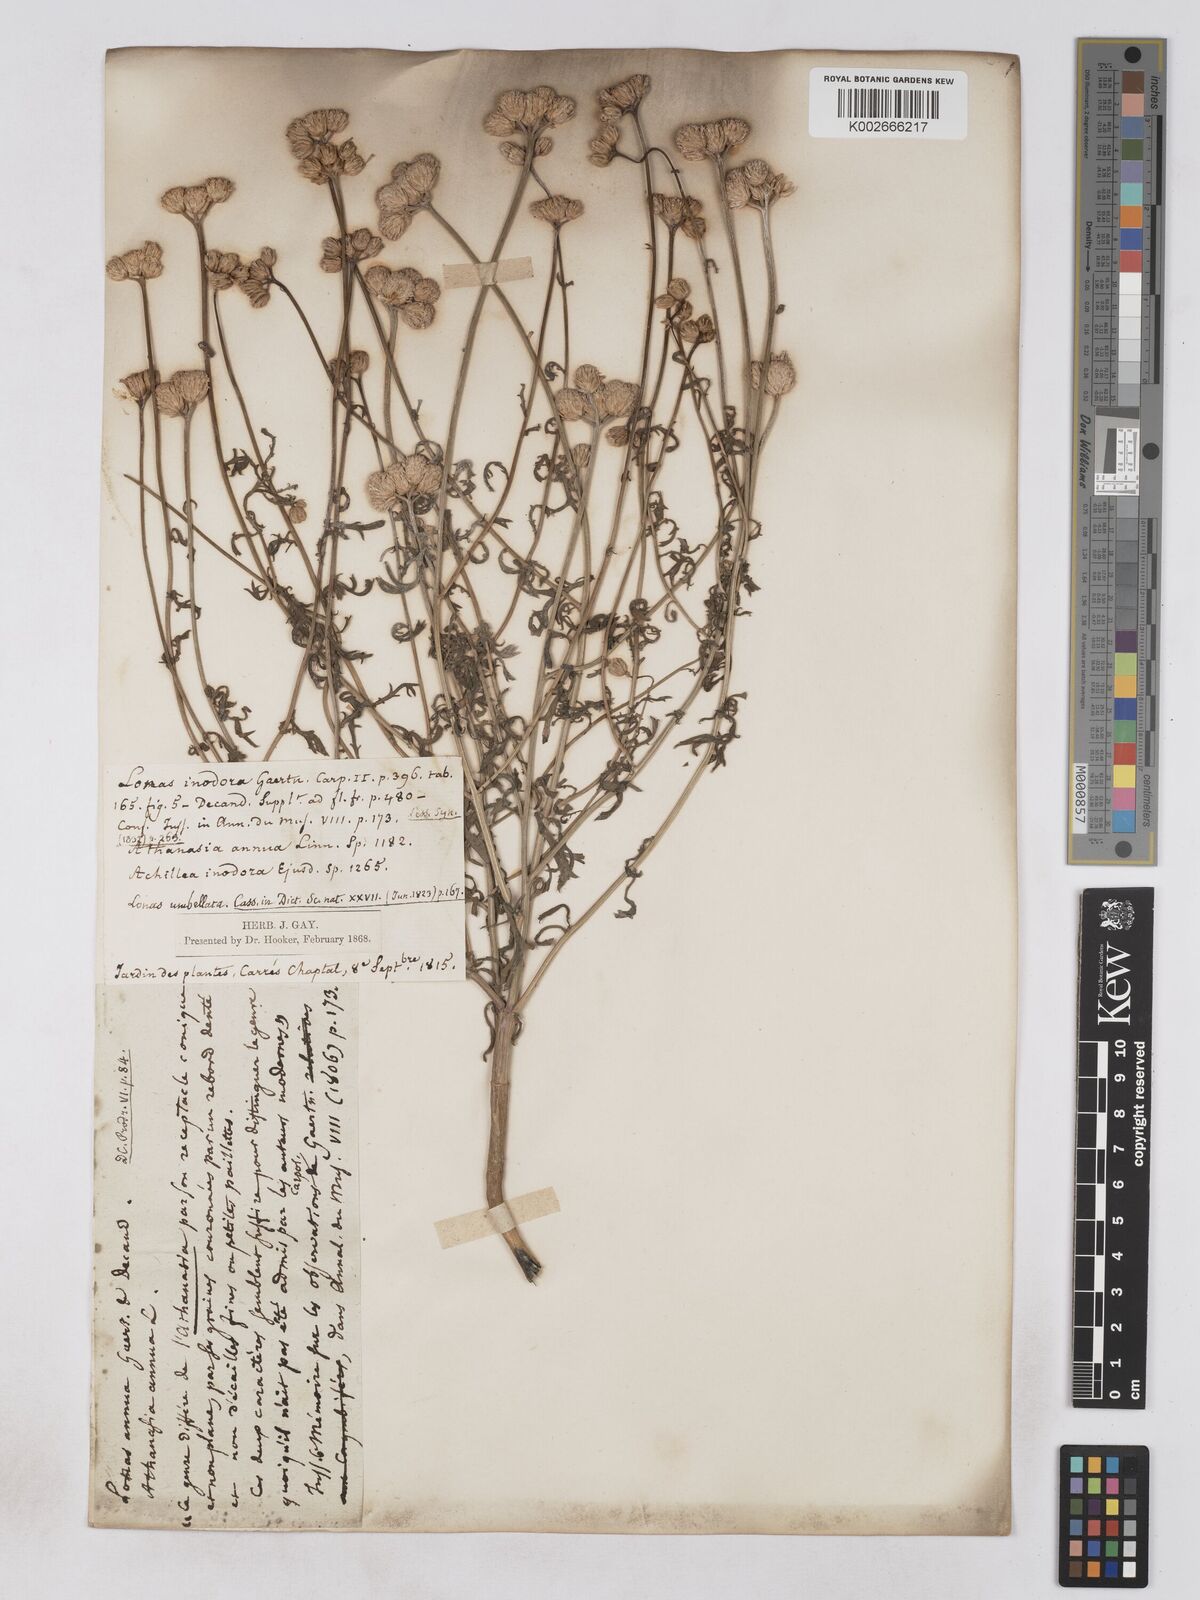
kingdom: Plantae
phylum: Tracheophyta
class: Magnoliopsida
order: Asterales
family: Asteraceae
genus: Lonas
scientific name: Lonas
